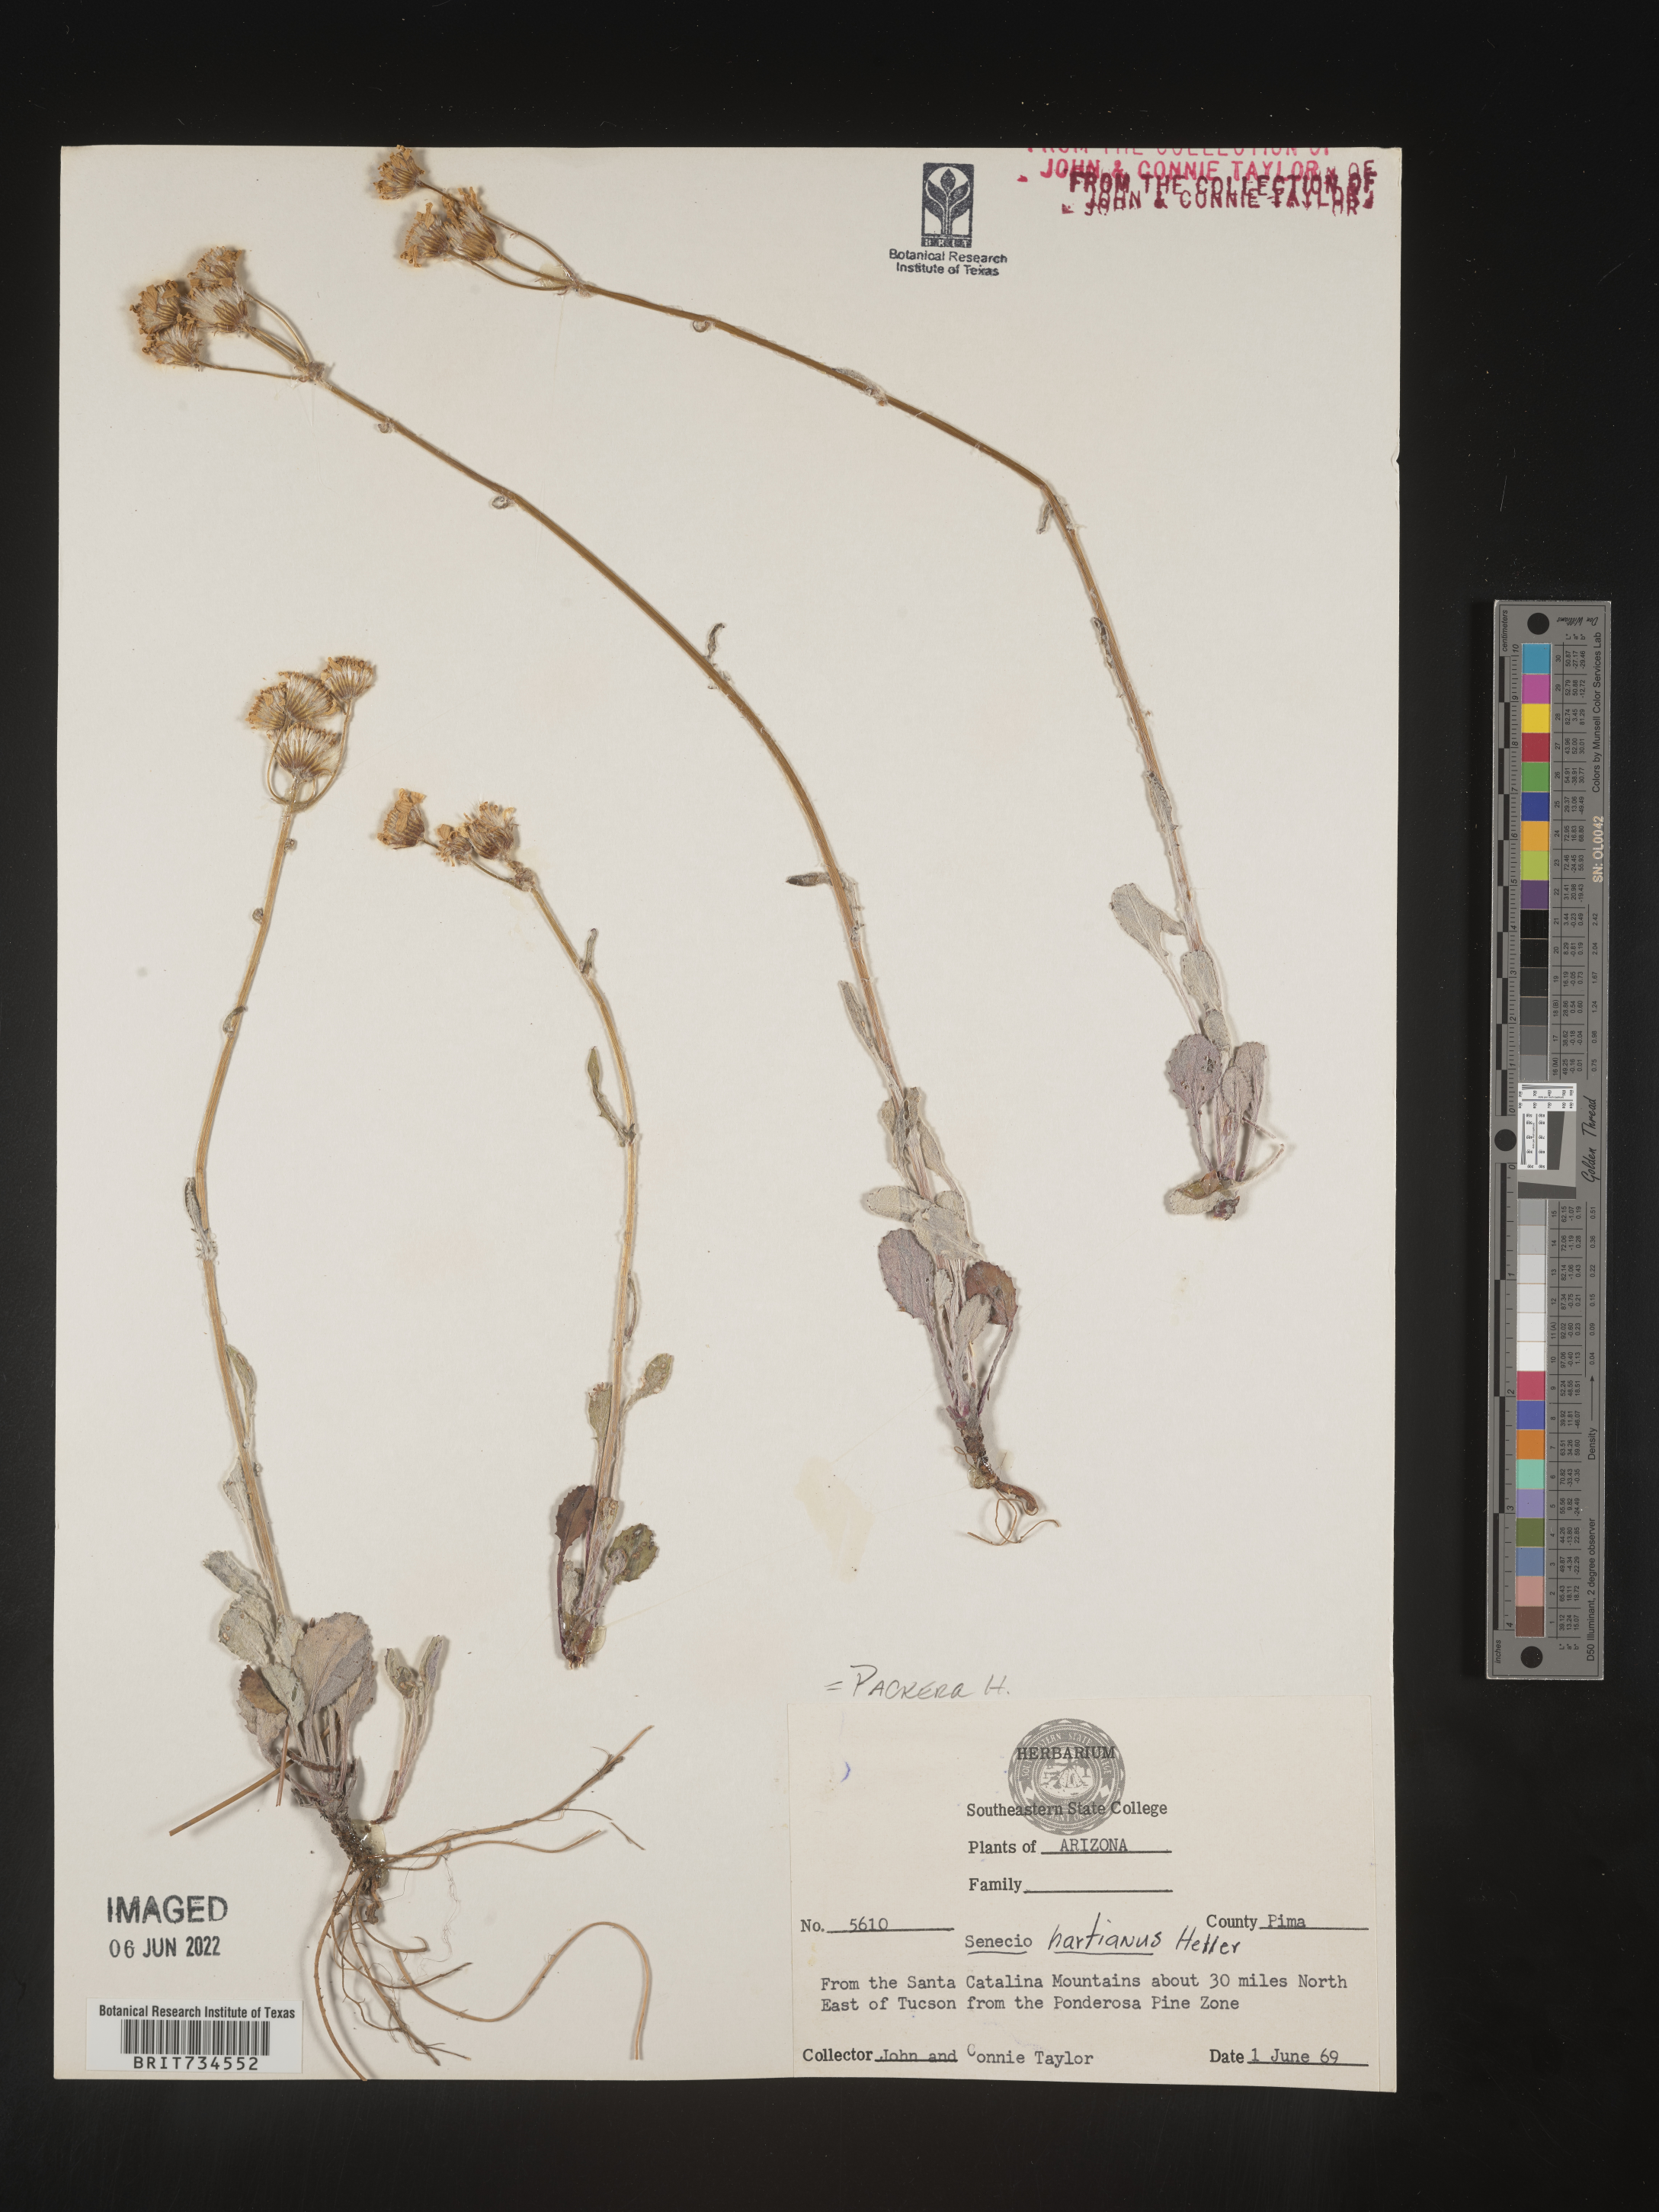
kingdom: Plantae
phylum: Tracheophyta
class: Magnoliopsida
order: Asterales
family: Asteraceae
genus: Packera
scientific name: Packera hartiana
